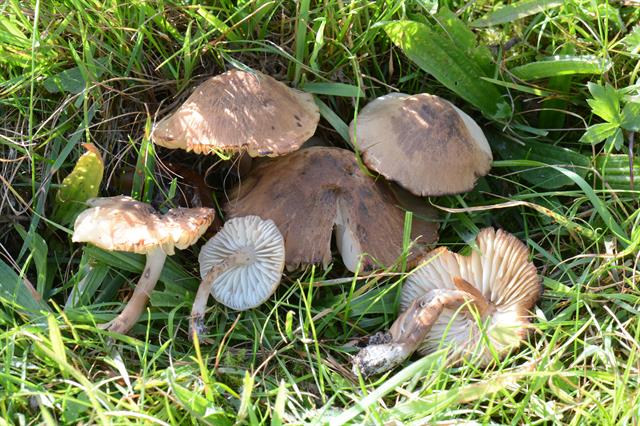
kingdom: Fungi
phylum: Basidiomycota
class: Agaricomycetes
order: Agaricales
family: Hygrophoraceae
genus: Hygrocybe
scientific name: Hygrocybe ingrata
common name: Jensens vokshat
